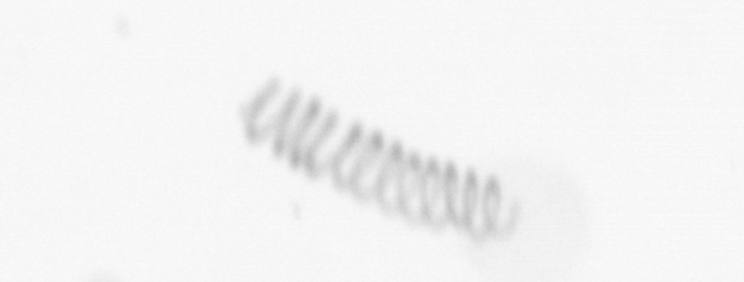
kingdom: Chromista
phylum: Ochrophyta
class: Bacillariophyceae
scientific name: Bacillariophyceae
